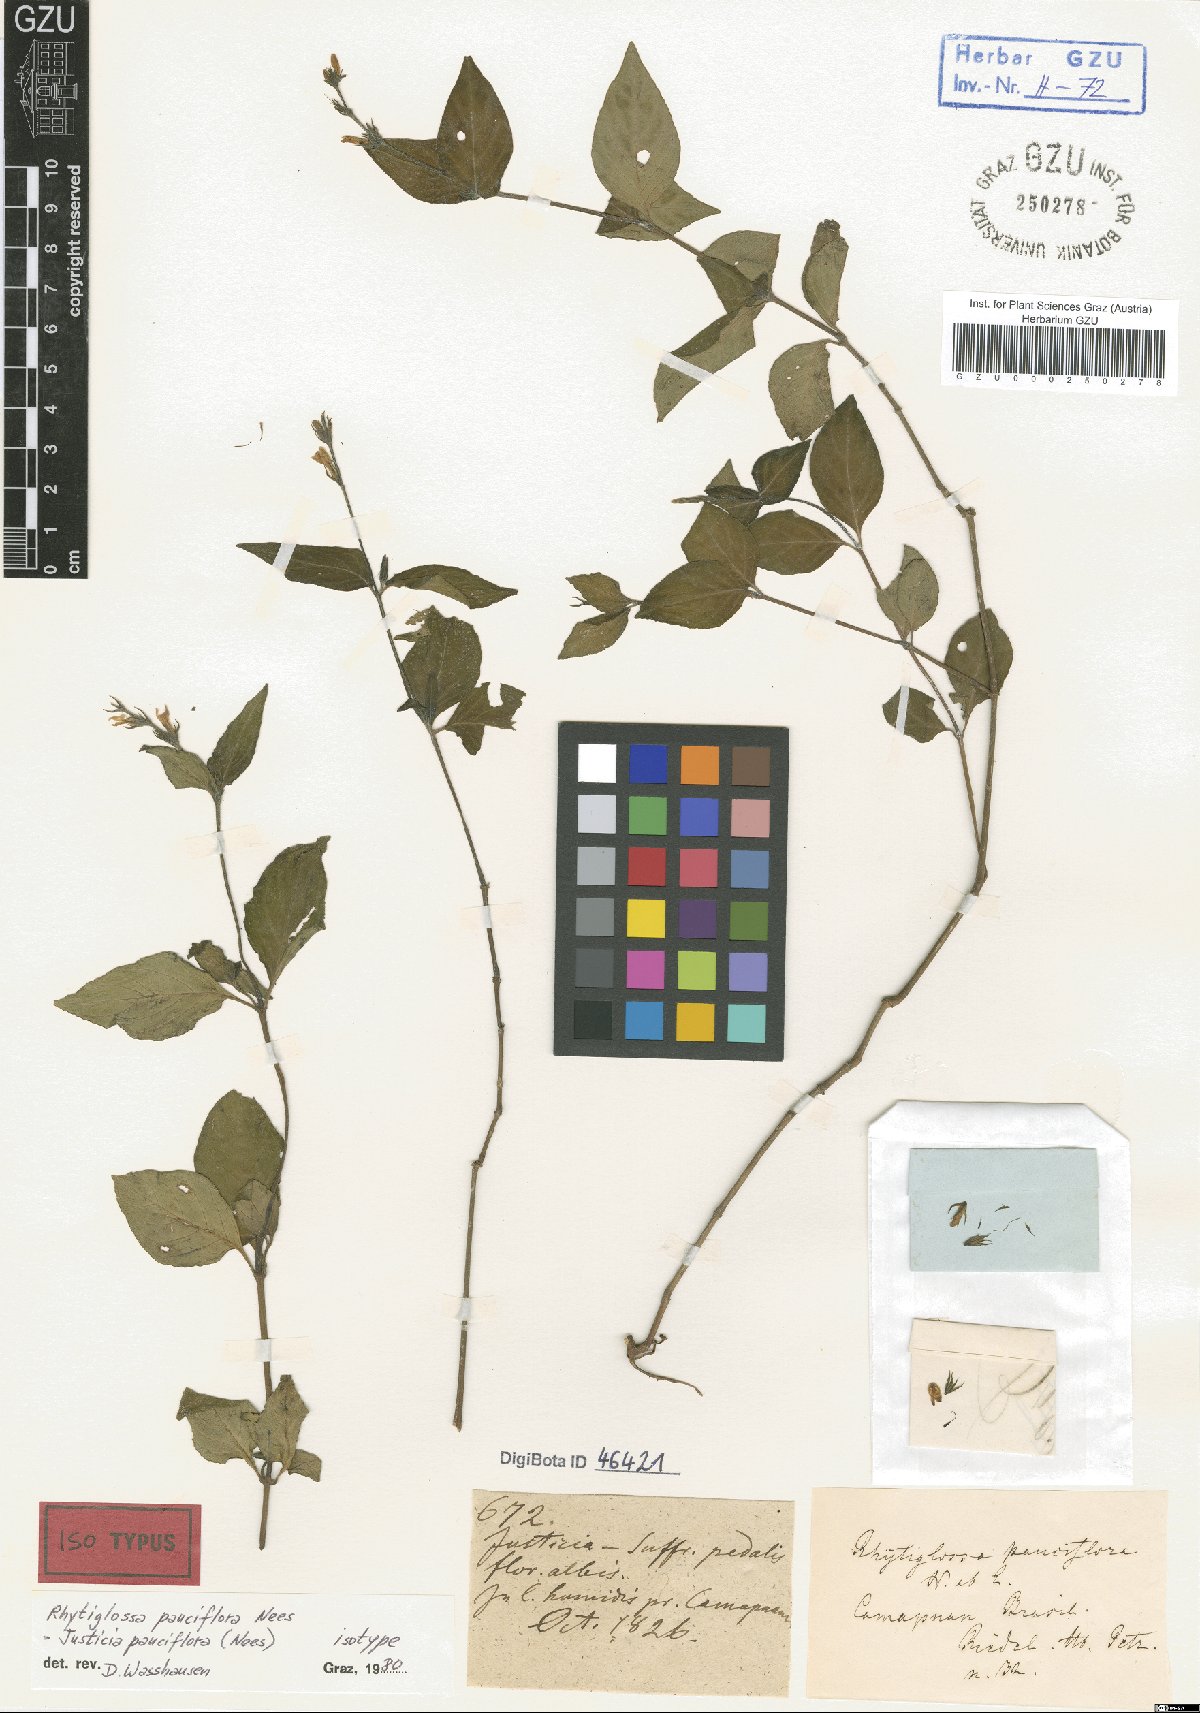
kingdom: Plantae
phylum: Tracheophyta
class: Magnoliopsida
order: Lamiales
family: Acanthaceae
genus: Justicia
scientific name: Justicia boliviana
